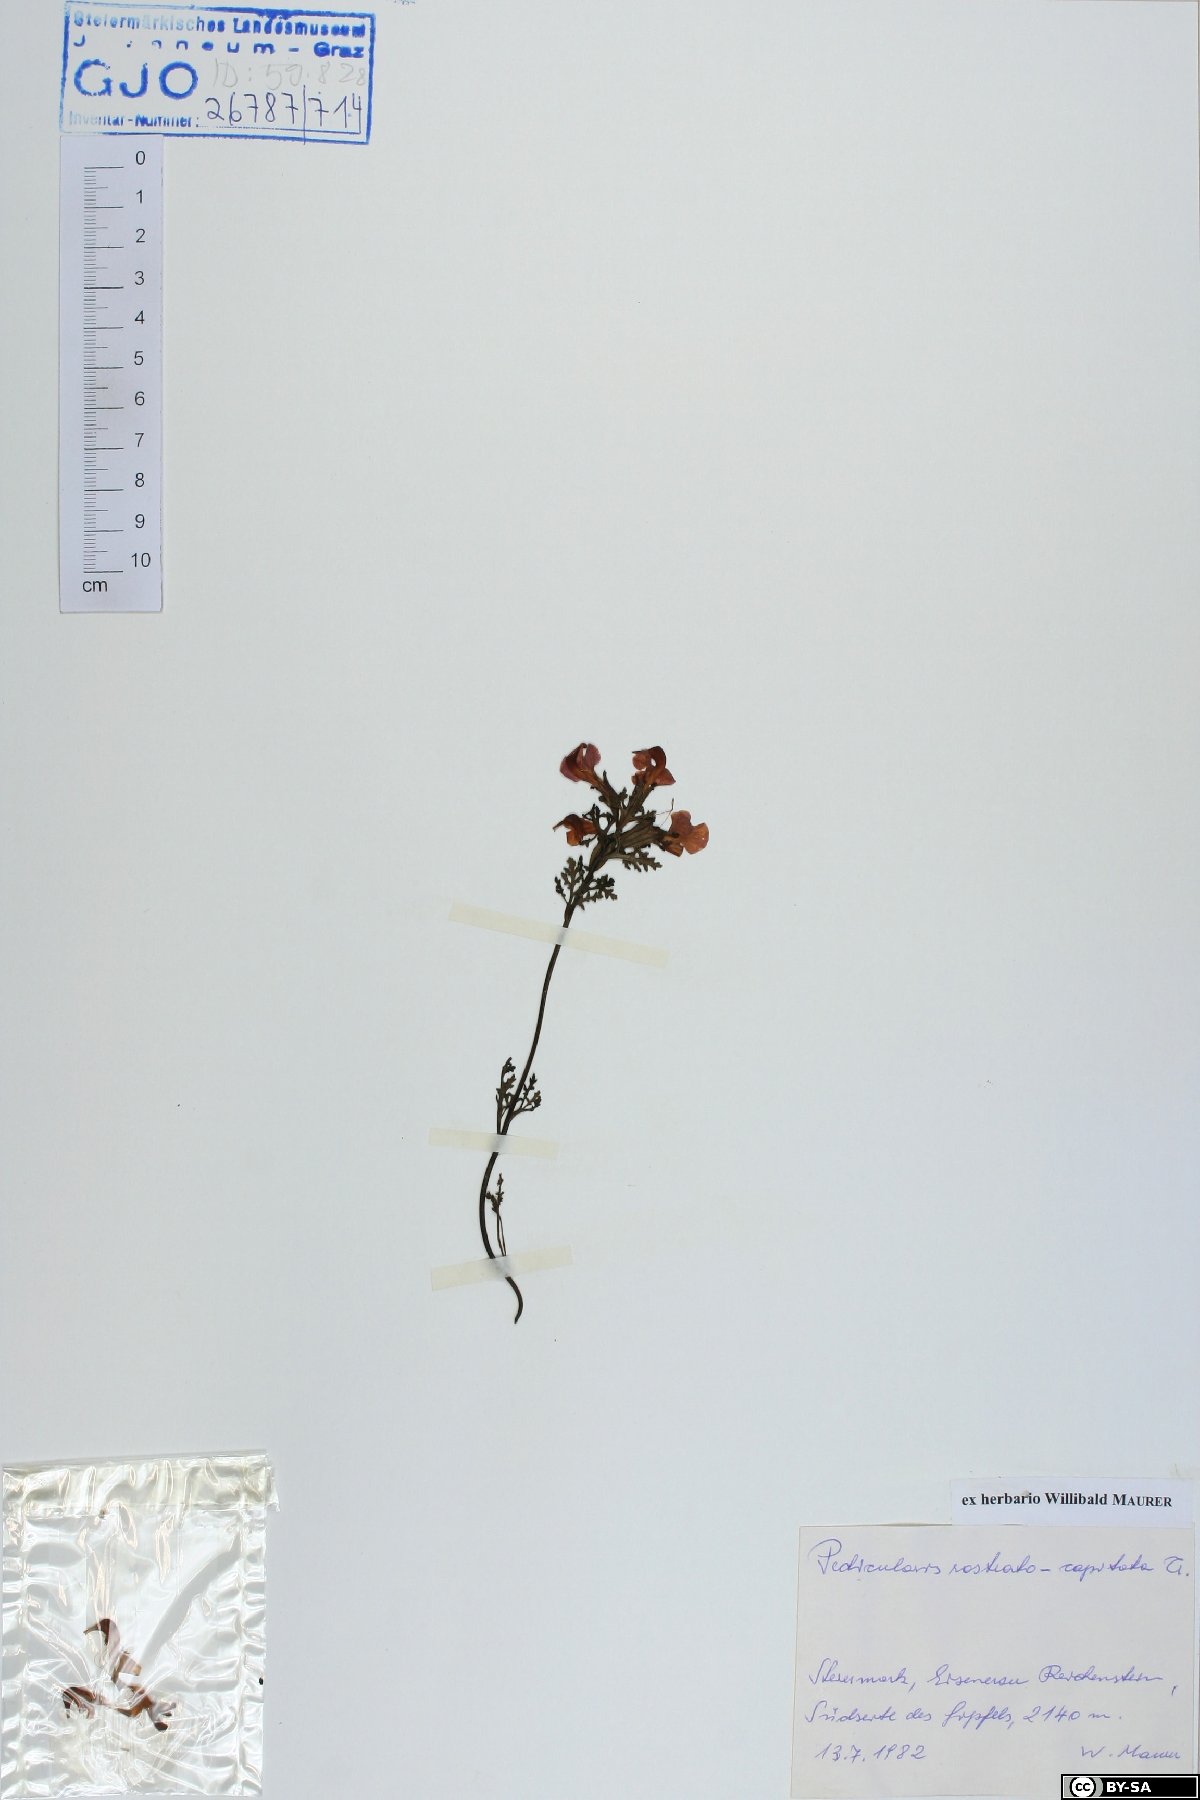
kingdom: Plantae
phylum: Tracheophyta
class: Magnoliopsida
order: Lamiales
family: Orobanchaceae
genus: Pedicularis
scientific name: Pedicularis rostratocapitata
